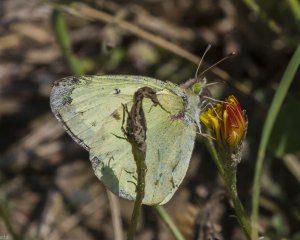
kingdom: Animalia
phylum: Arthropoda
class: Insecta
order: Lepidoptera
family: Pieridae
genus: Colias
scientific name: Colias philodice
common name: Clouded Sulphur
